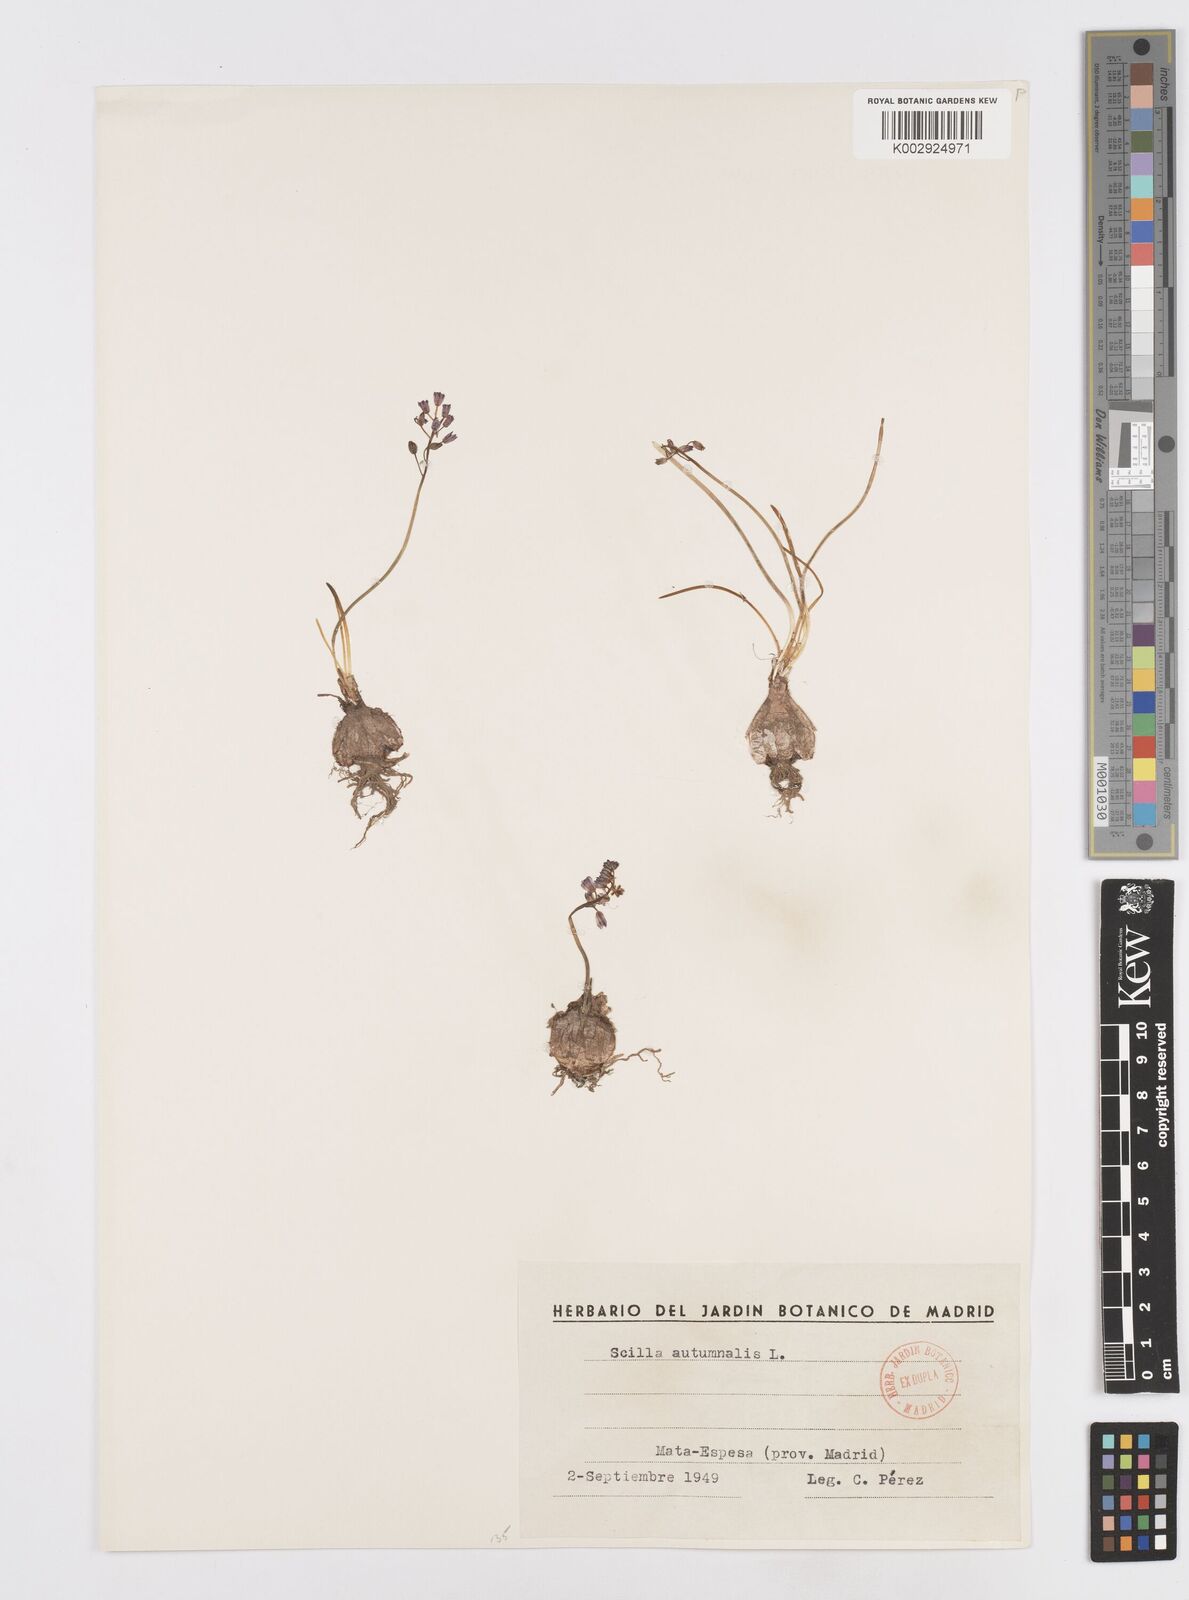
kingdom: Plantae
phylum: Tracheophyta
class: Liliopsida
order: Asparagales
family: Asparagaceae
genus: Prospero
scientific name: Prospero autumnale
